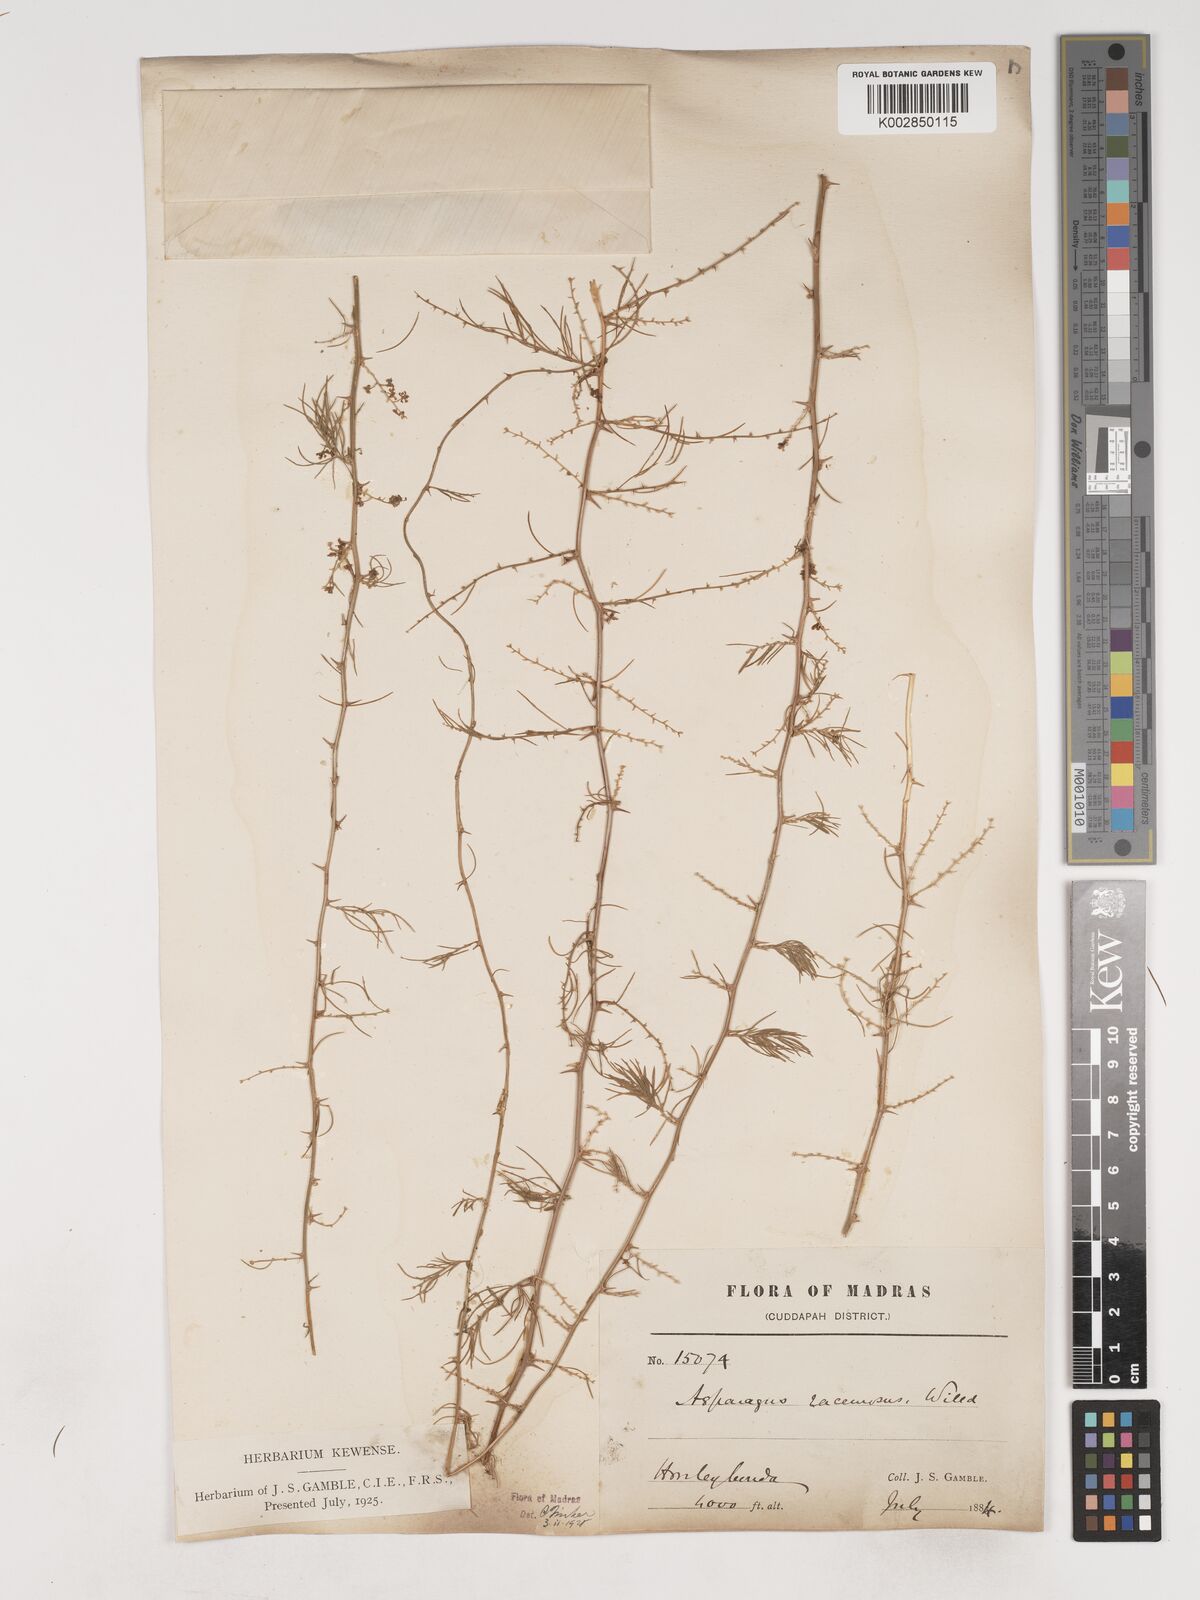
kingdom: Plantae
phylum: Tracheophyta
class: Liliopsida
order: Asparagales
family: Asparagaceae
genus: Asparagus
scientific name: Asparagus racemosus
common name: Asparagus-fern
